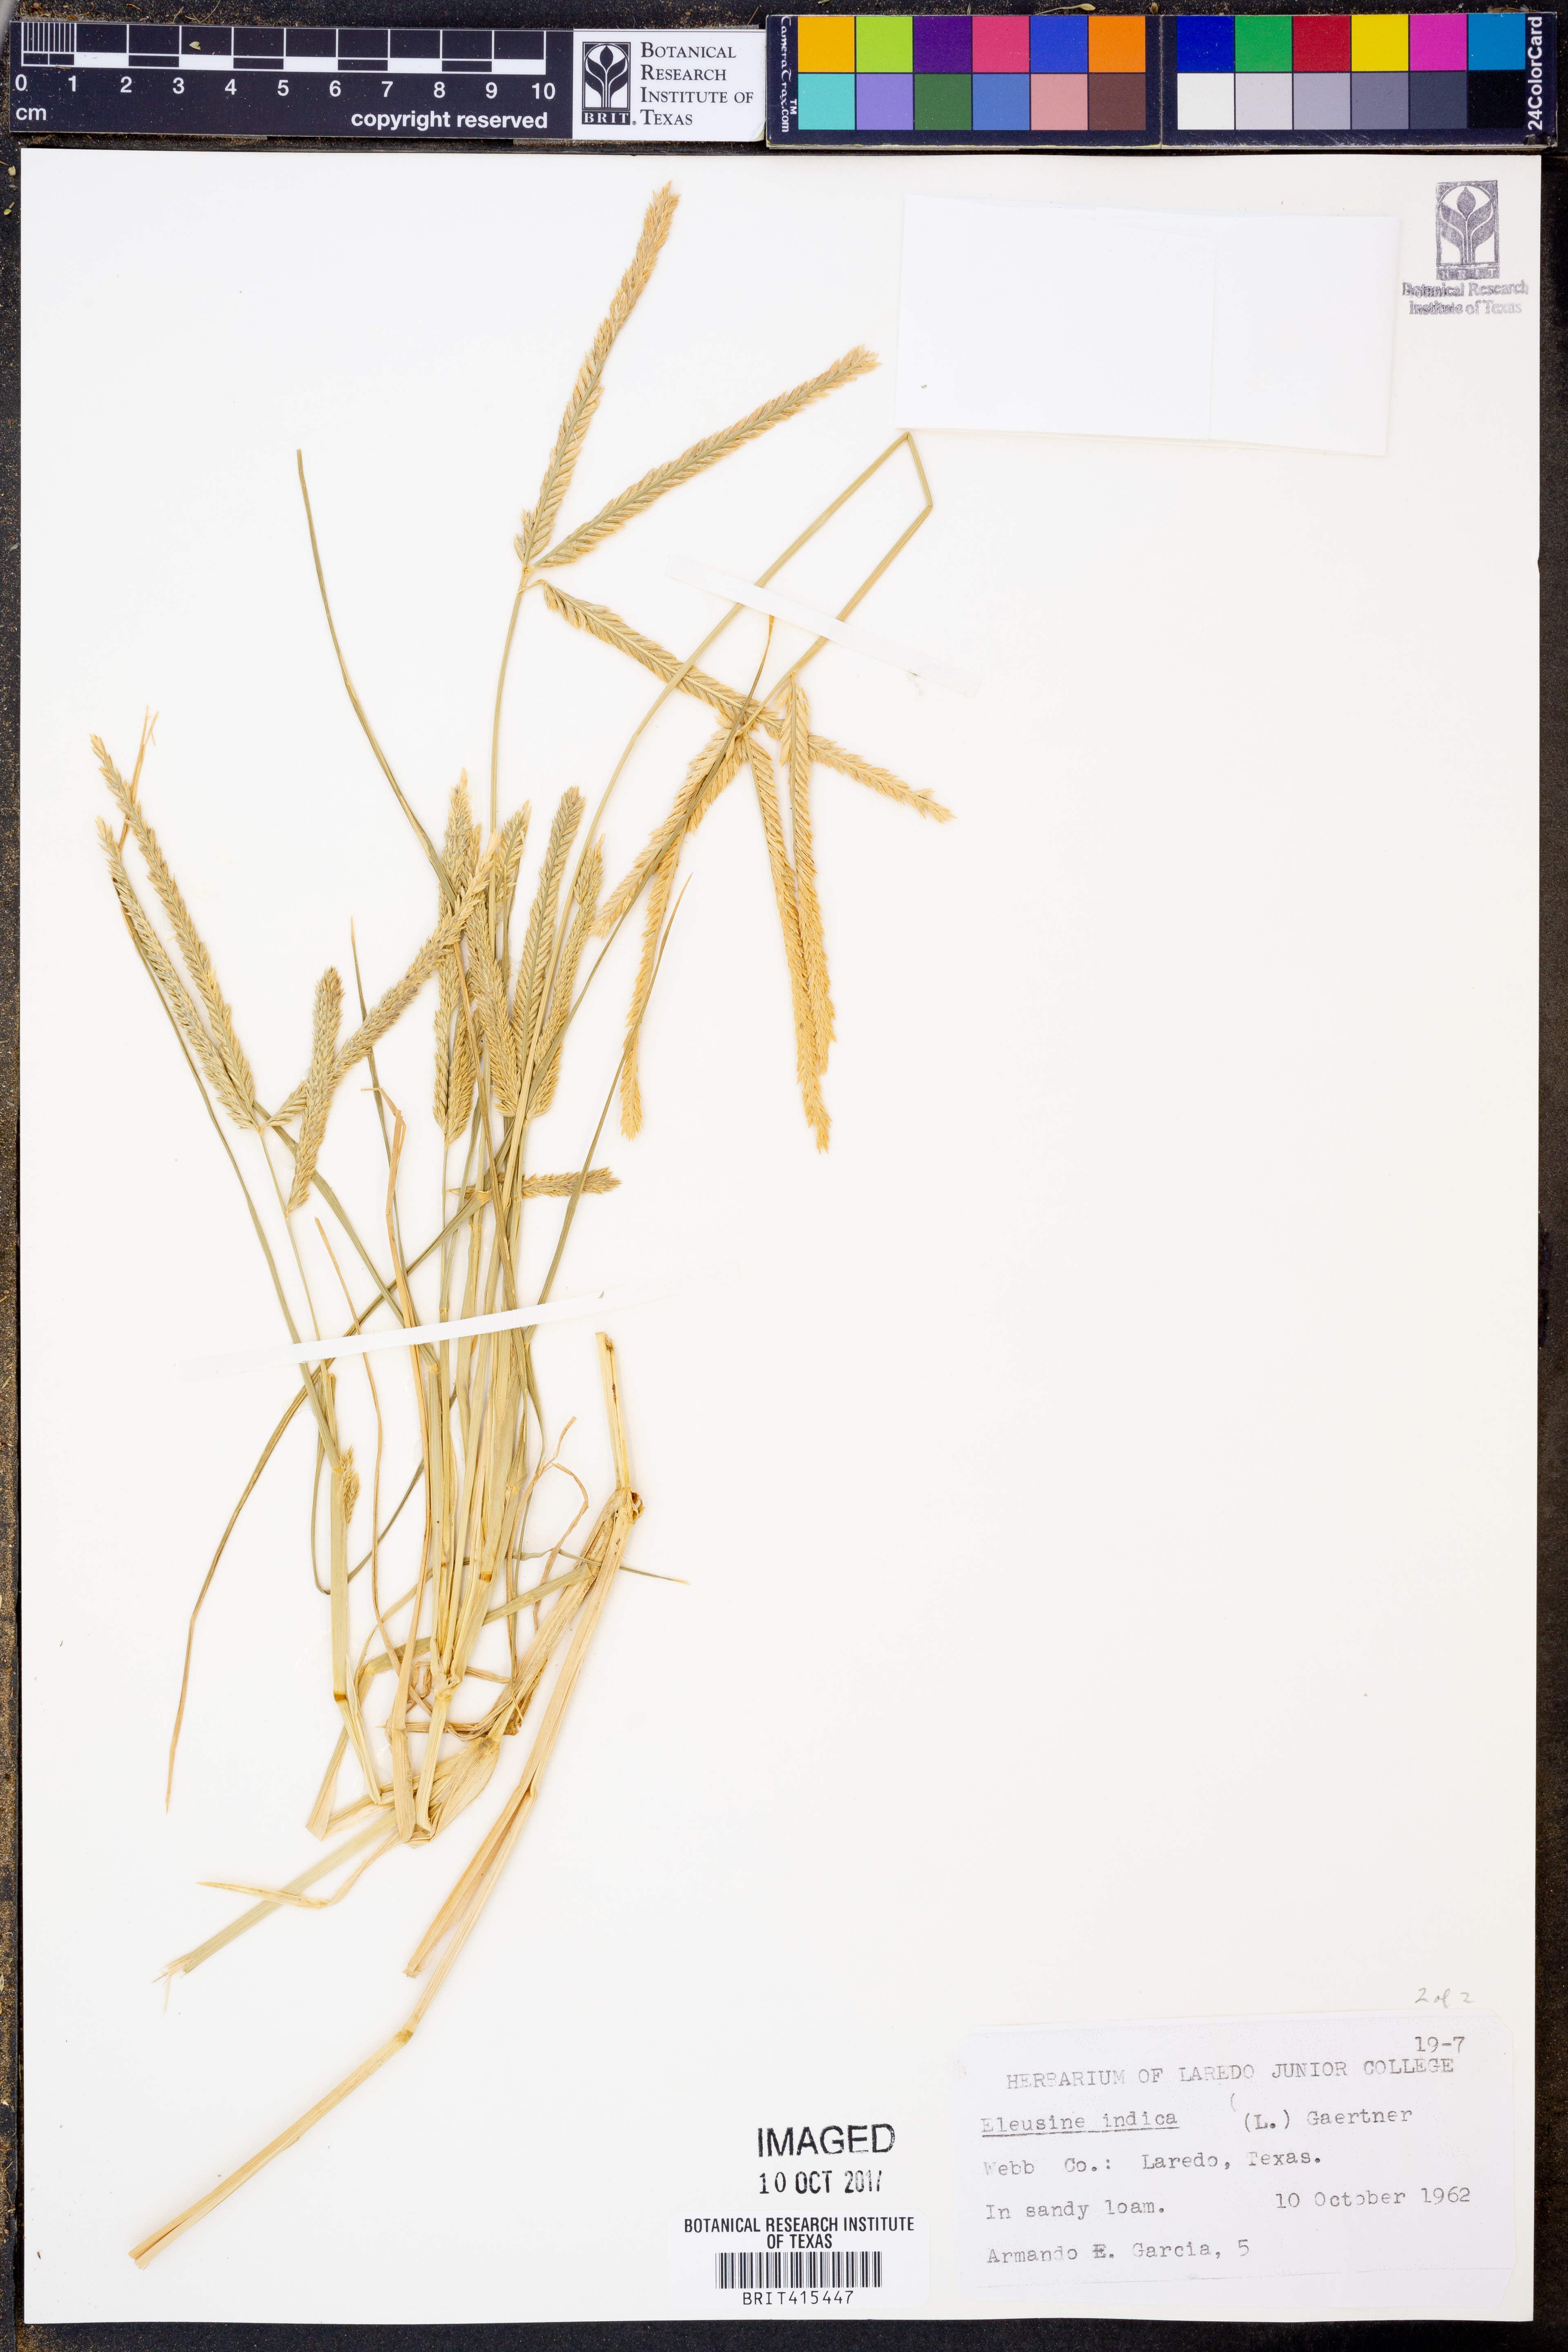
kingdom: Plantae
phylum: Tracheophyta
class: Liliopsida
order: Poales
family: Poaceae
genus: Eleusine
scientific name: Eleusine indica
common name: Yard-grass
